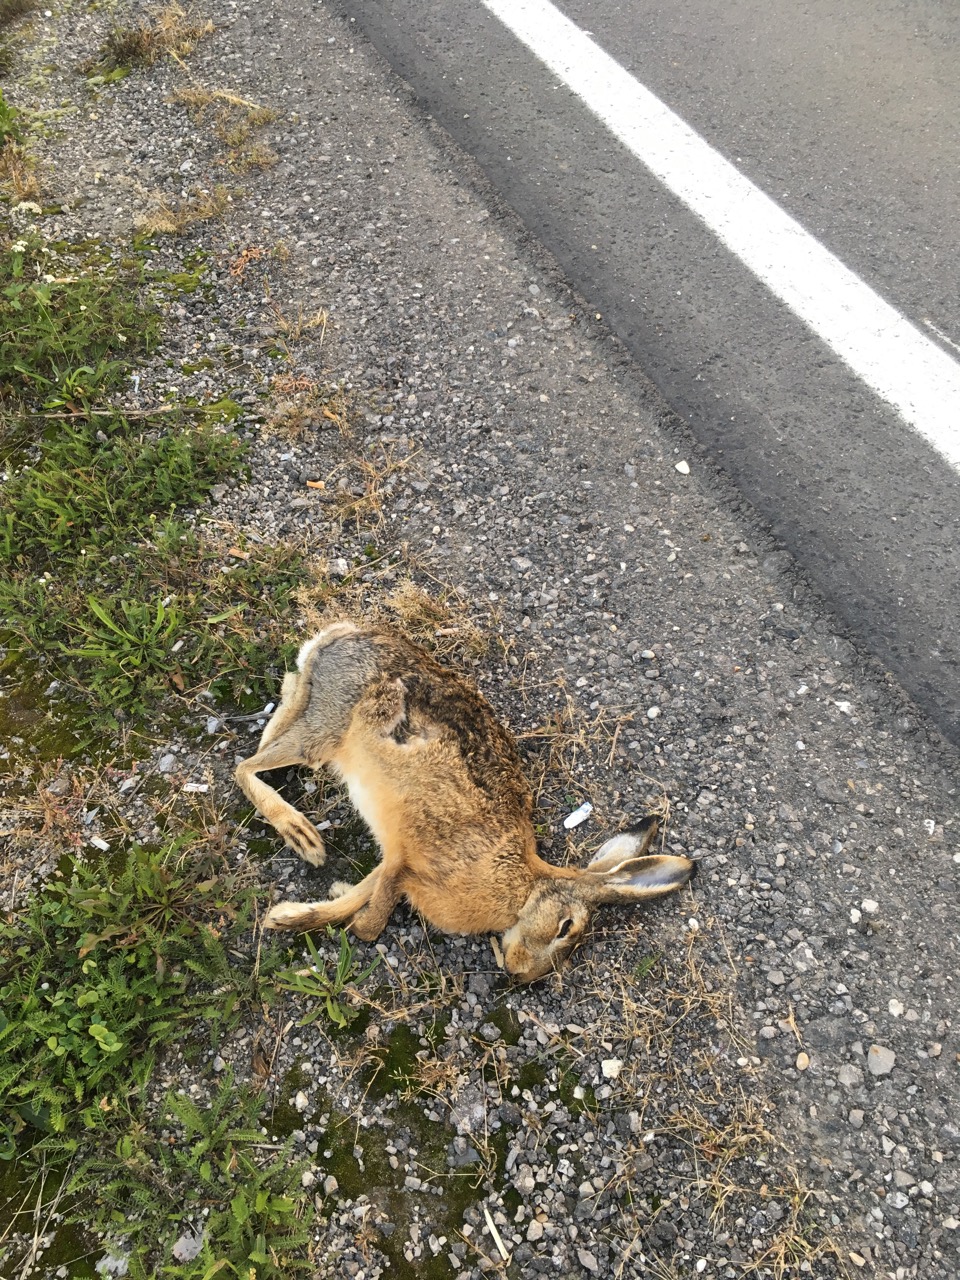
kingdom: Animalia
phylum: Chordata
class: Mammalia
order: Lagomorpha
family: Leporidae
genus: Lepus
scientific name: Lepus europaeus
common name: European hare
